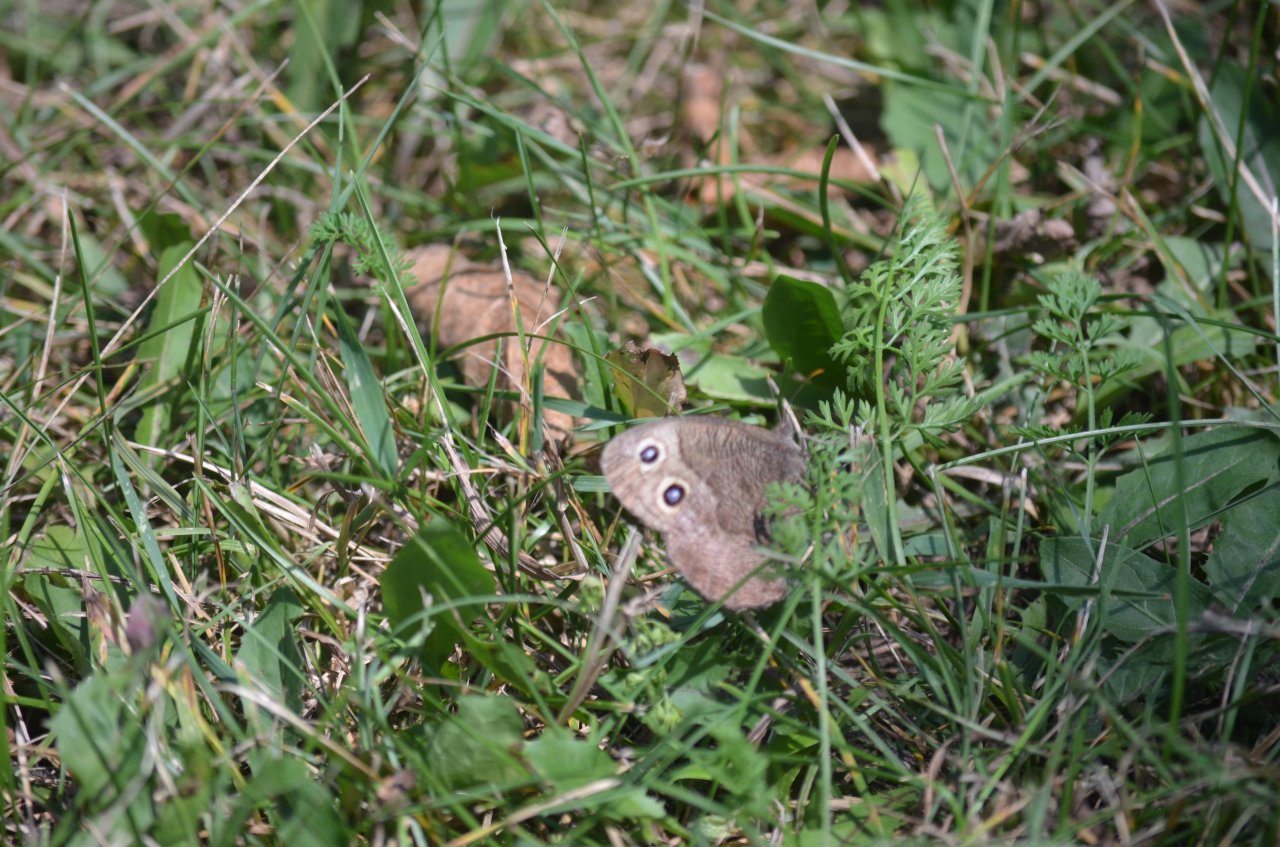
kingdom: Animalia
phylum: Arthropoda
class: Insecta
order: Lepidoptera
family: Nymphalidae
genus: Cercyonis
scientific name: Cercyonis pegala
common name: Common Wood-Nymph
